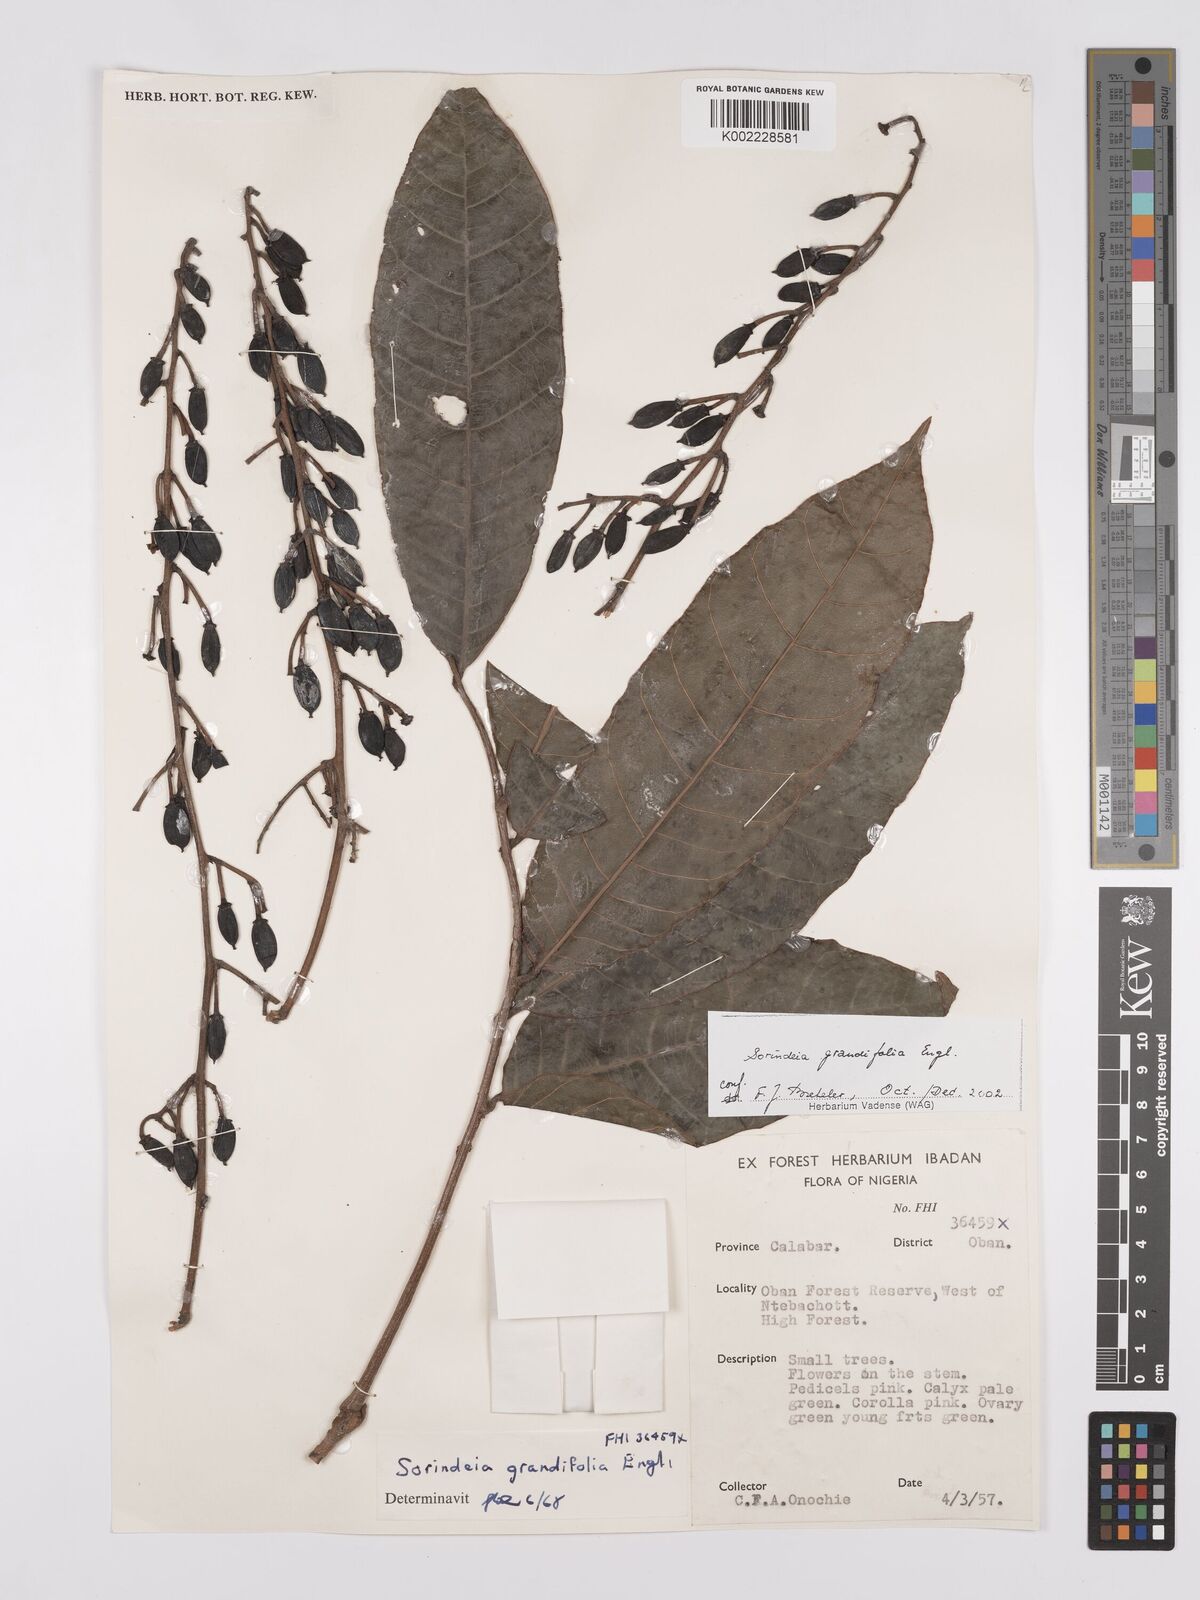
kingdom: Plantae
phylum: Tracheophyta
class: Magnoliopsida
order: Sapindales
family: Anacardiaceae
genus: Sorindeia
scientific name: Sorindeia grandifolia
